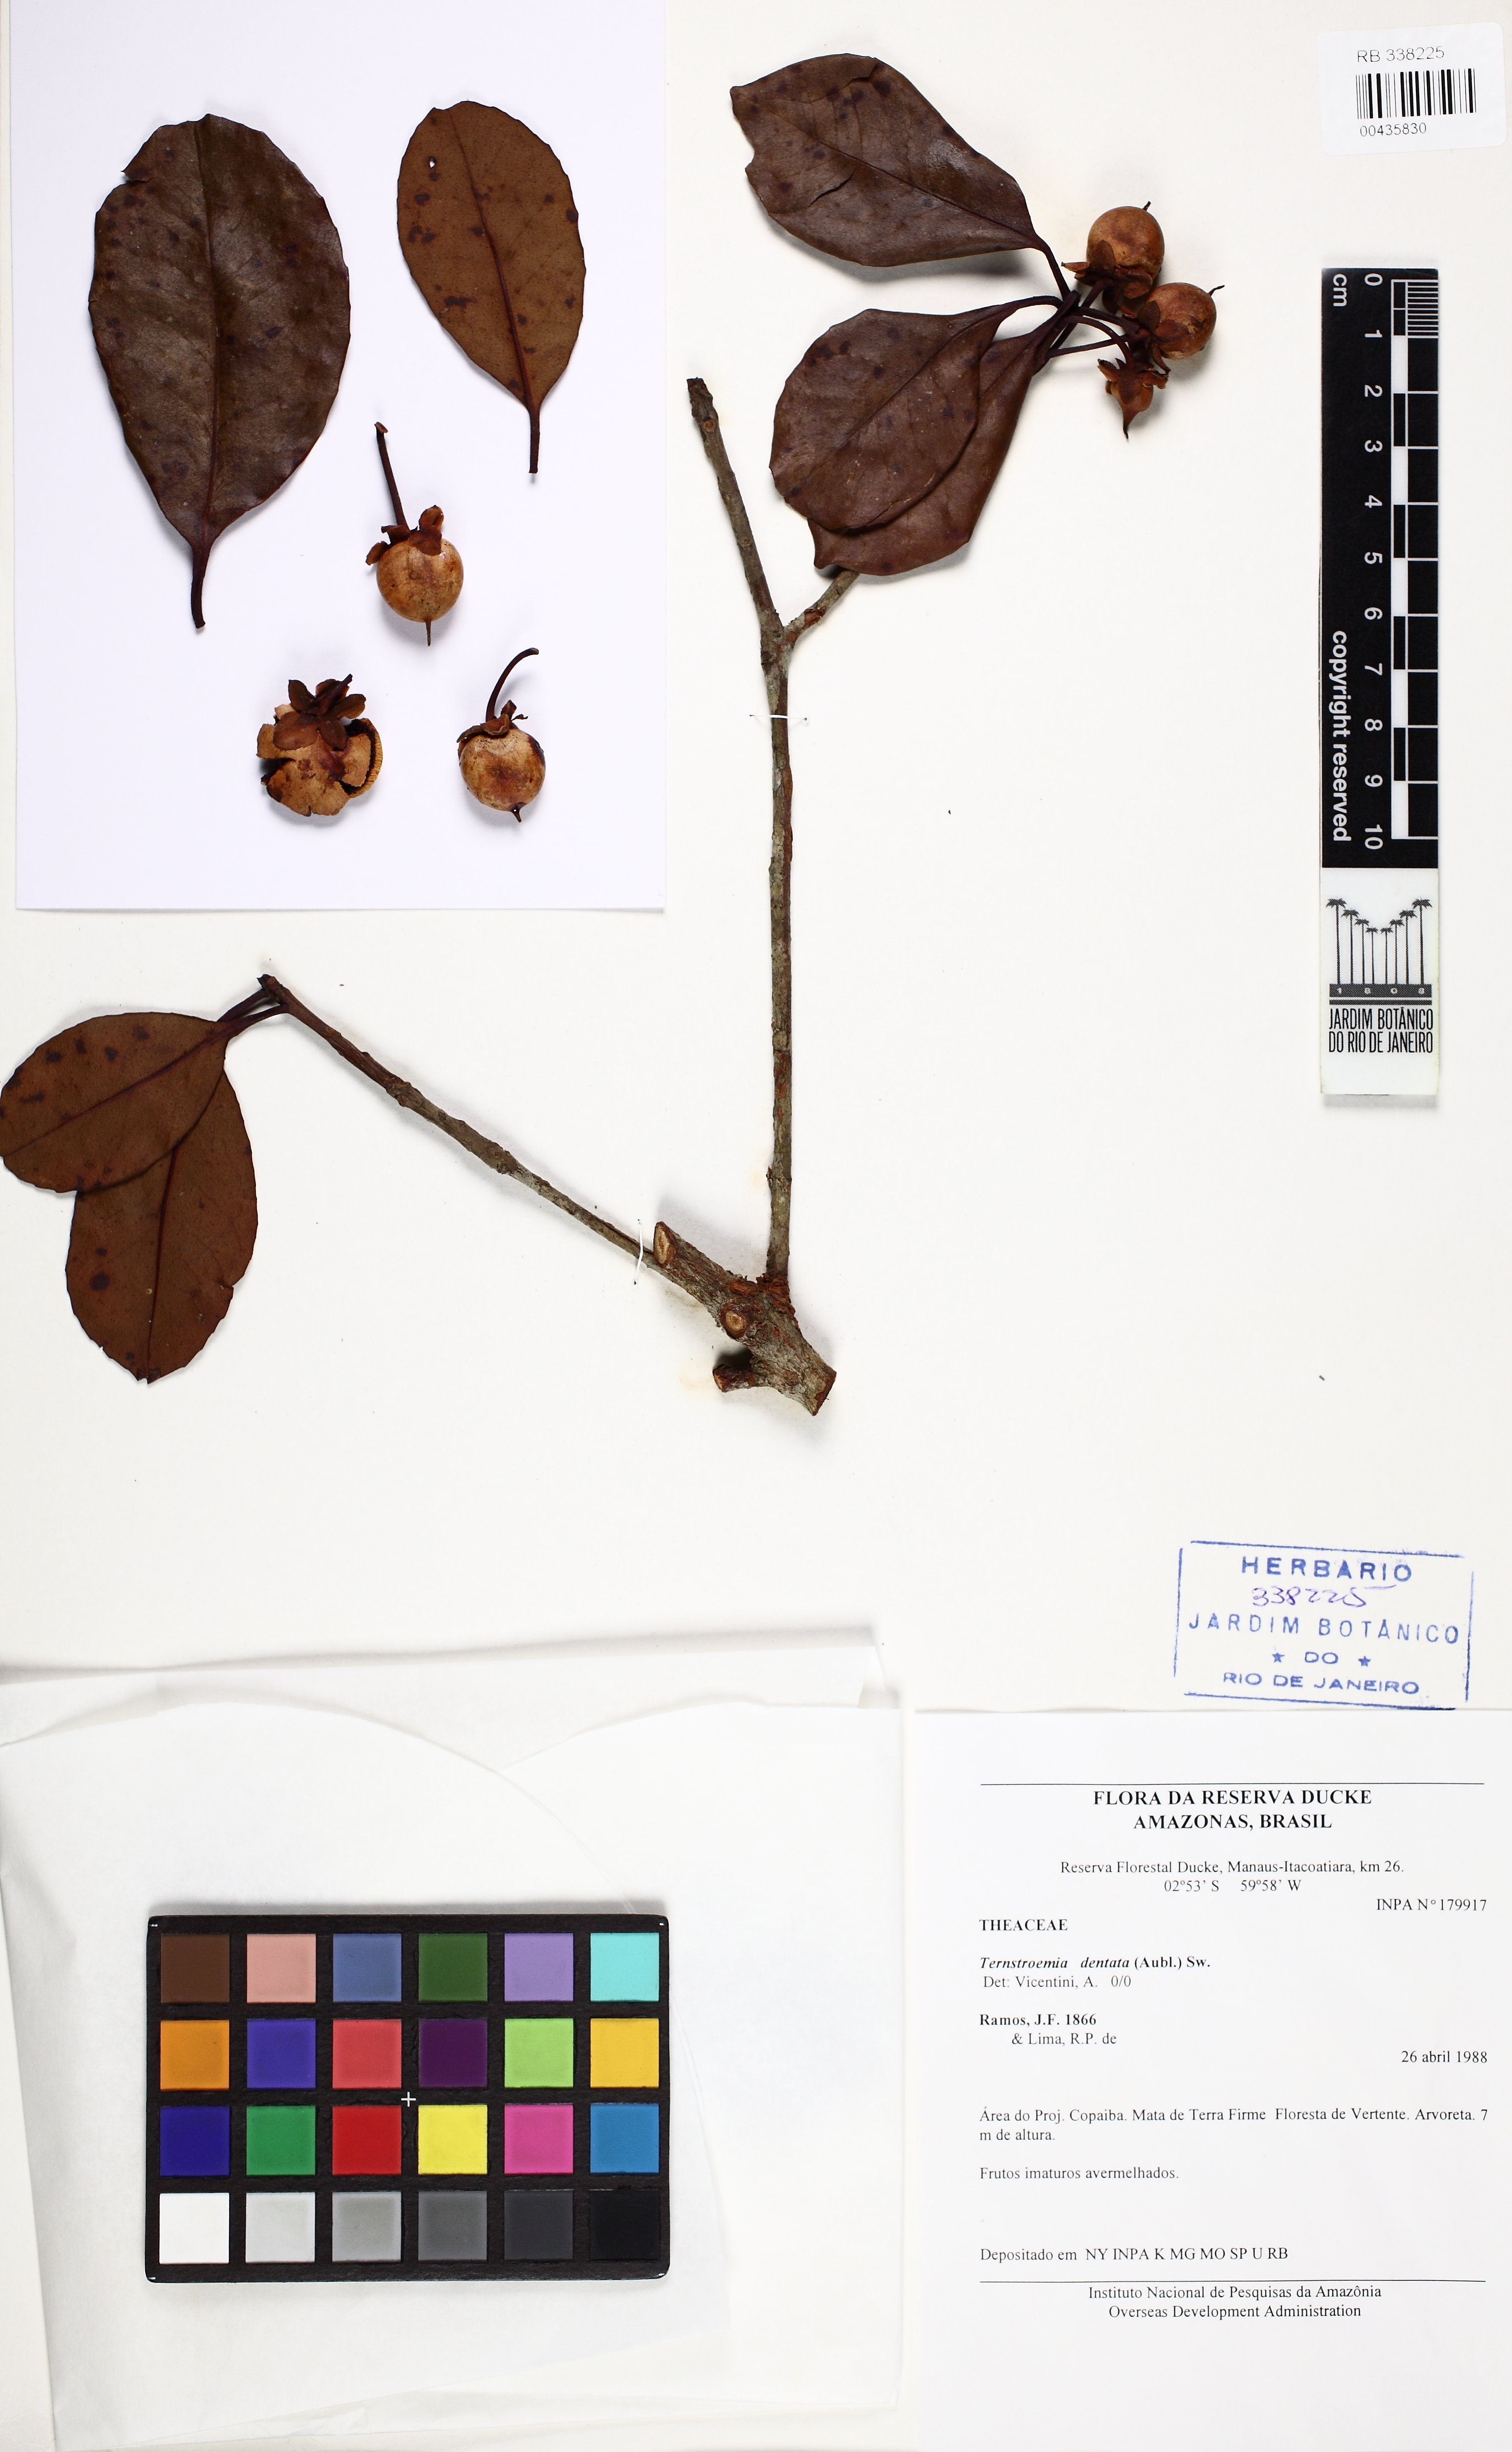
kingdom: Plantae
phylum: Tracheophyta
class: Magnoliopsida
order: Ericales
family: Pentaphylacaceae
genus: Ternstroemia
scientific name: Ternstroemia dentata
